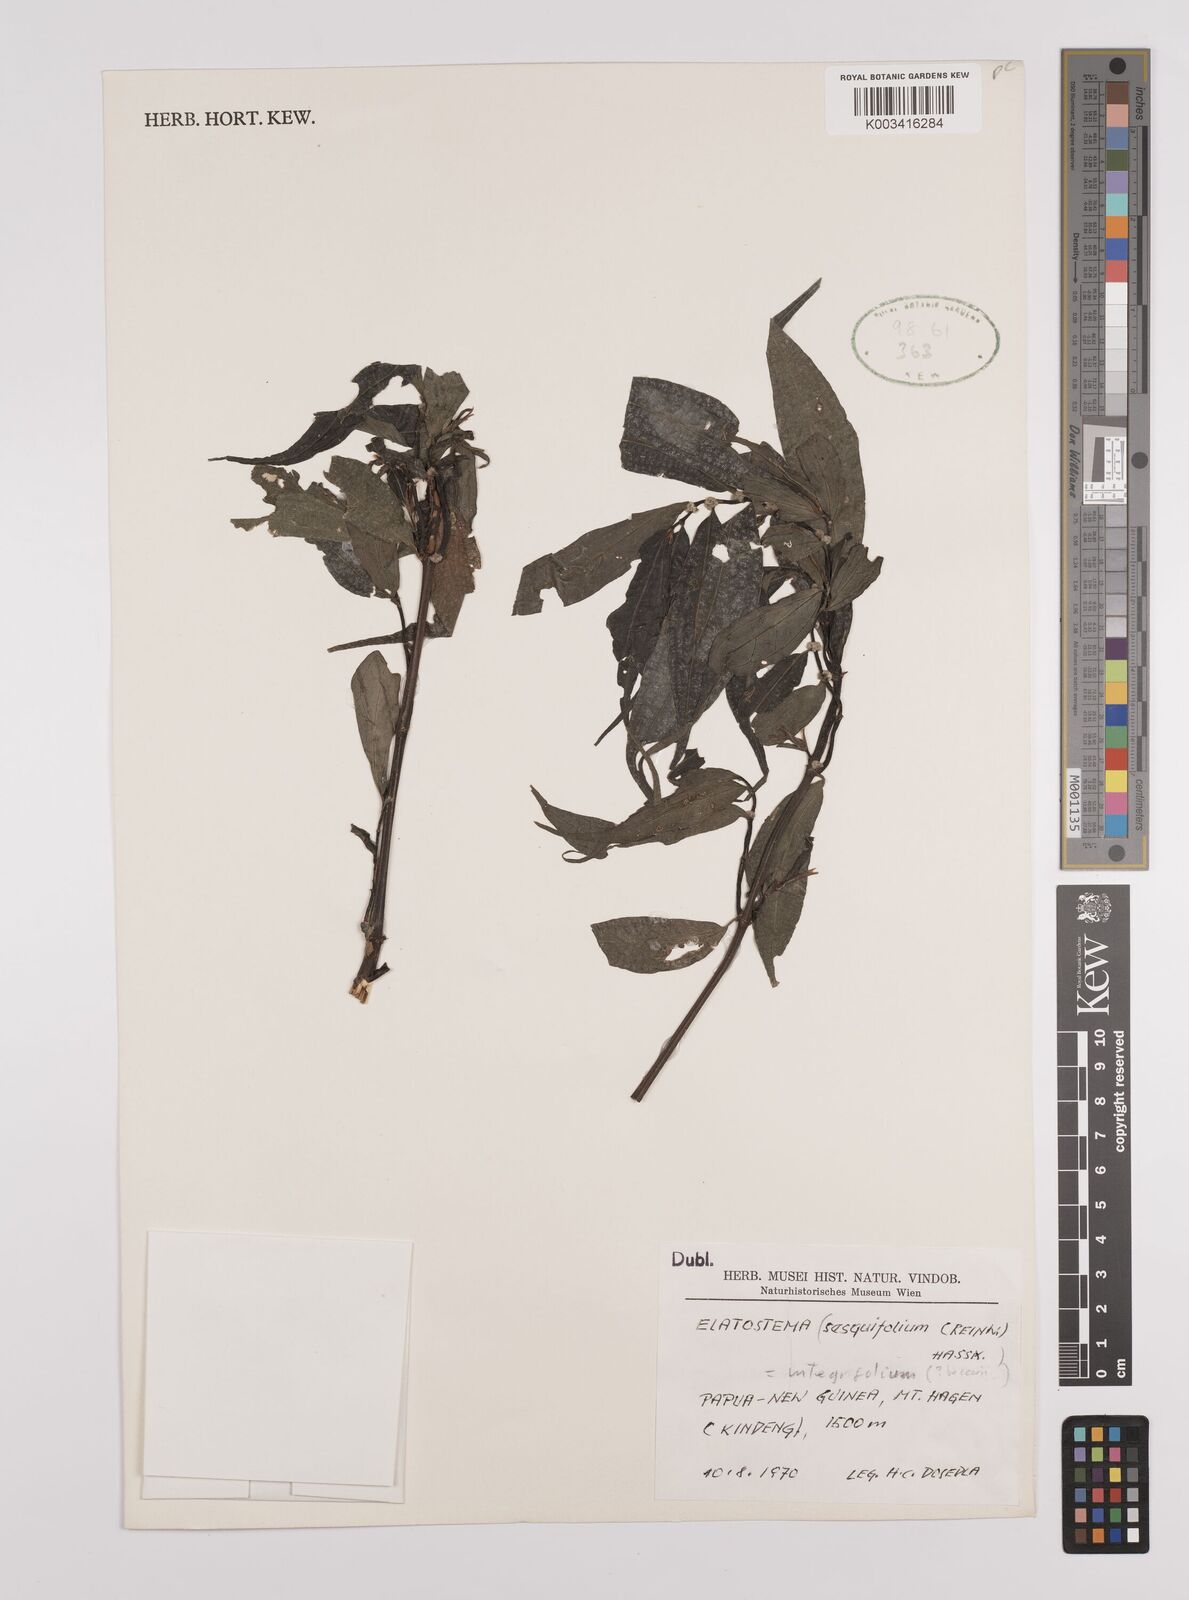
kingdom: Plantae
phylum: Tracheophyta
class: Magnoliopsida
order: Rosales
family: Urticaceae
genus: Elatostema
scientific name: Elatostema integrifolium
